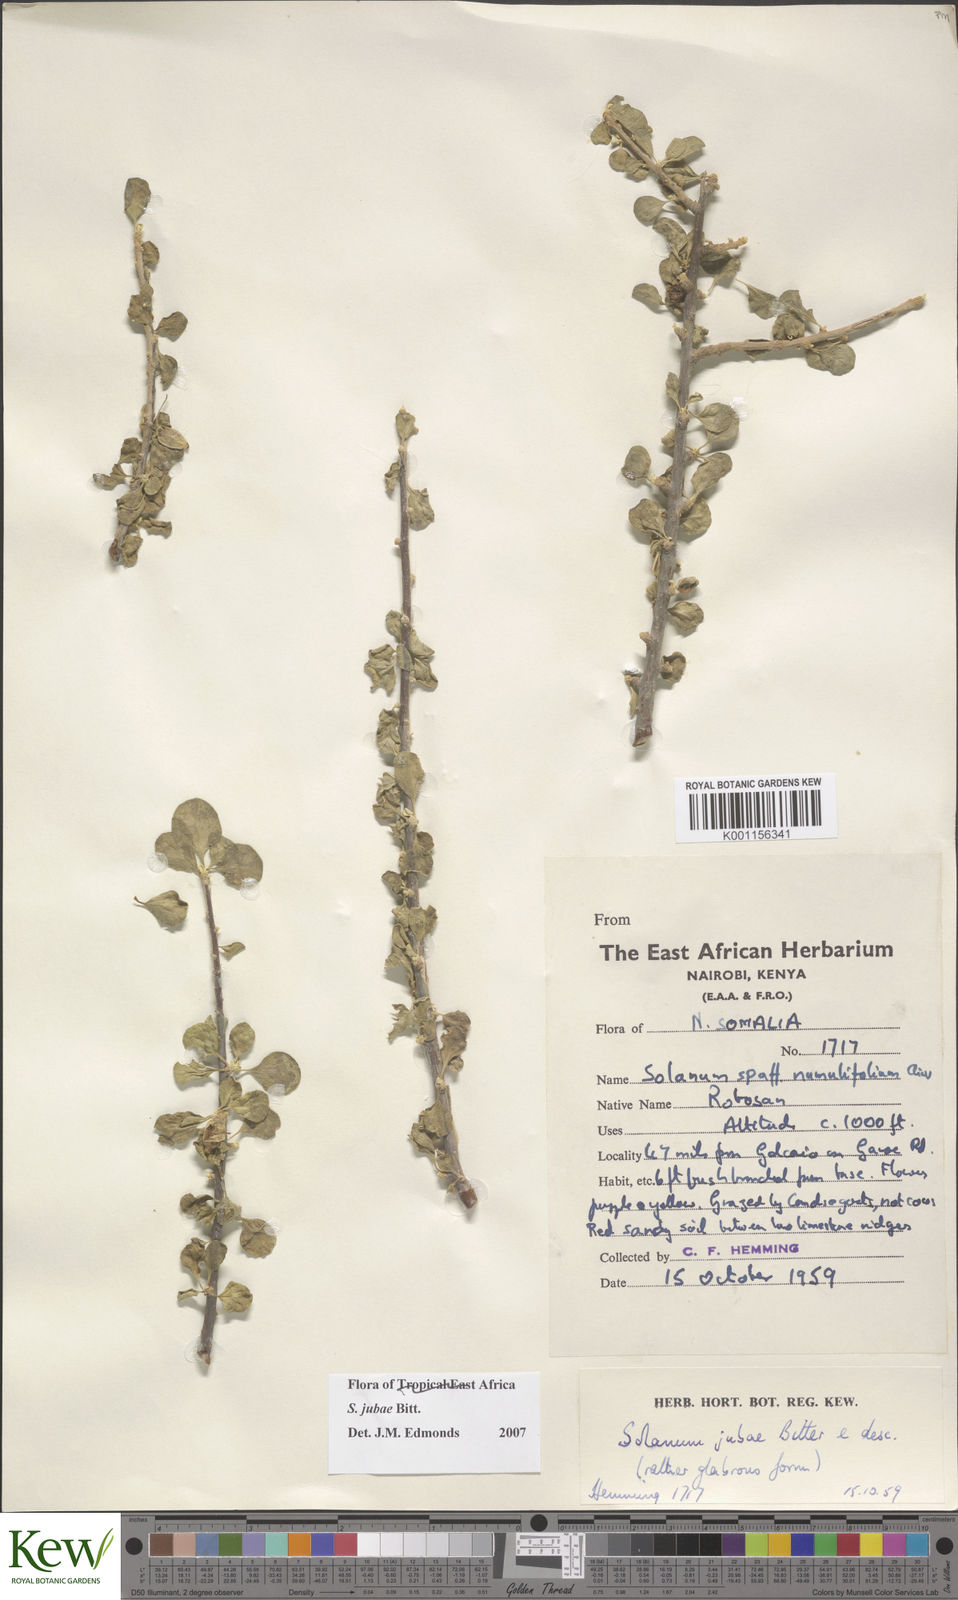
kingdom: Plantae
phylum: Tracheophyta
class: Magnoliopsida
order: Solanales
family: Solanaceae
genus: Solanum
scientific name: Solanum jubae
